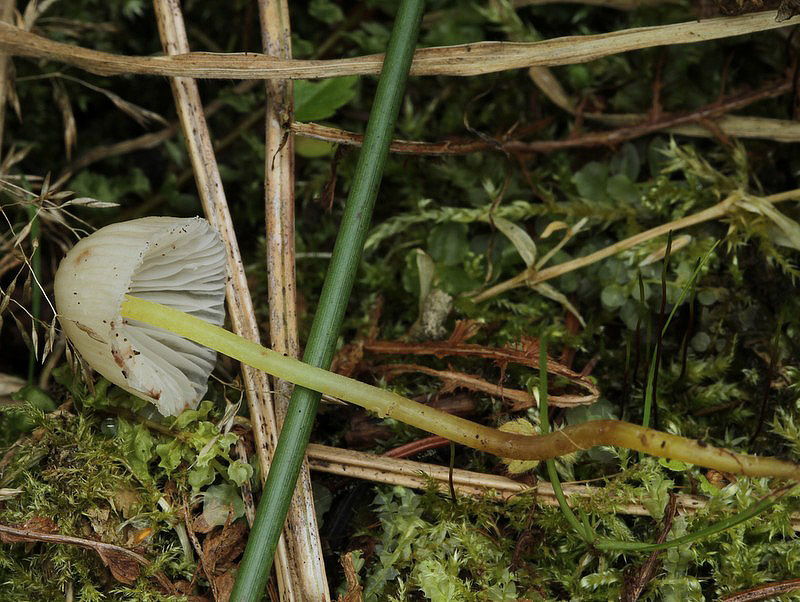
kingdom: Fungi
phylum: Basidiomycota
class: Agaricomycetes
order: Agaricales
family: Mycenaceae
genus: Mycena
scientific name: Mycena epipterygia
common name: gulstokket huesvamp
